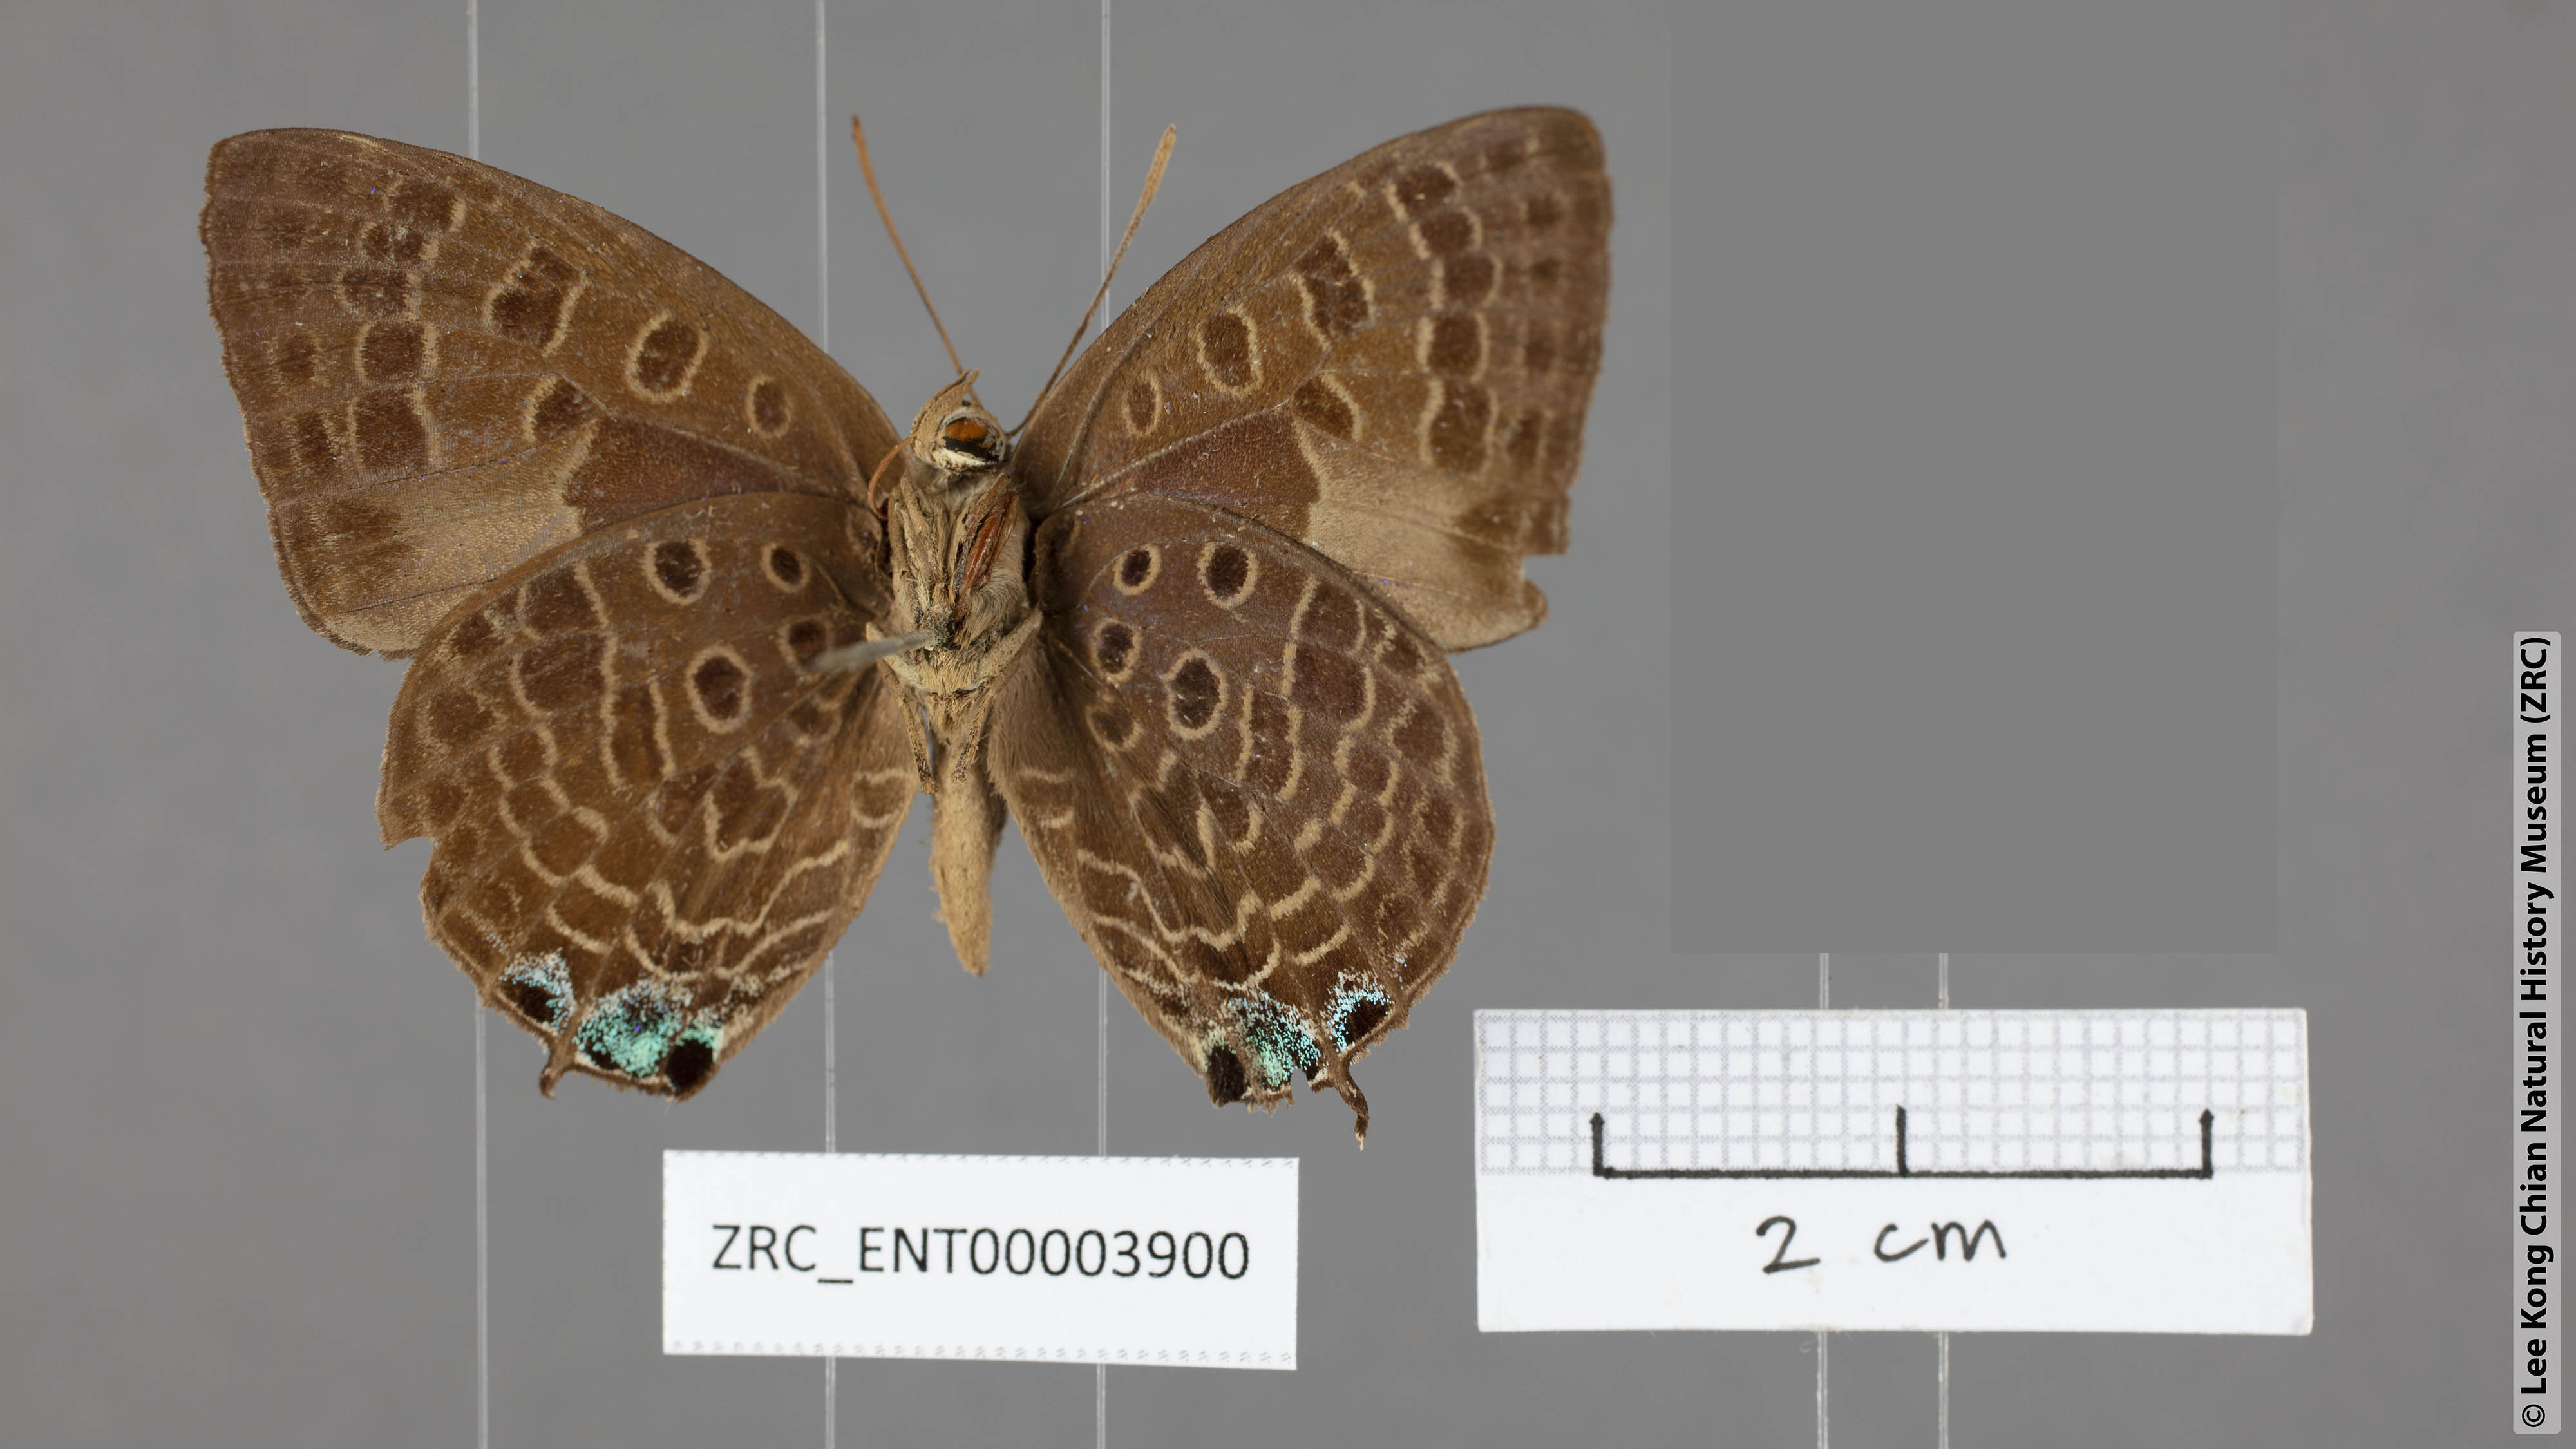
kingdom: Animalia
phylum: Arthropoda
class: Insecta
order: Lepidoptera
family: Lycaenidae
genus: Arhopala
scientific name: Arhopala corinda
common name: Ultramarine oakblue
